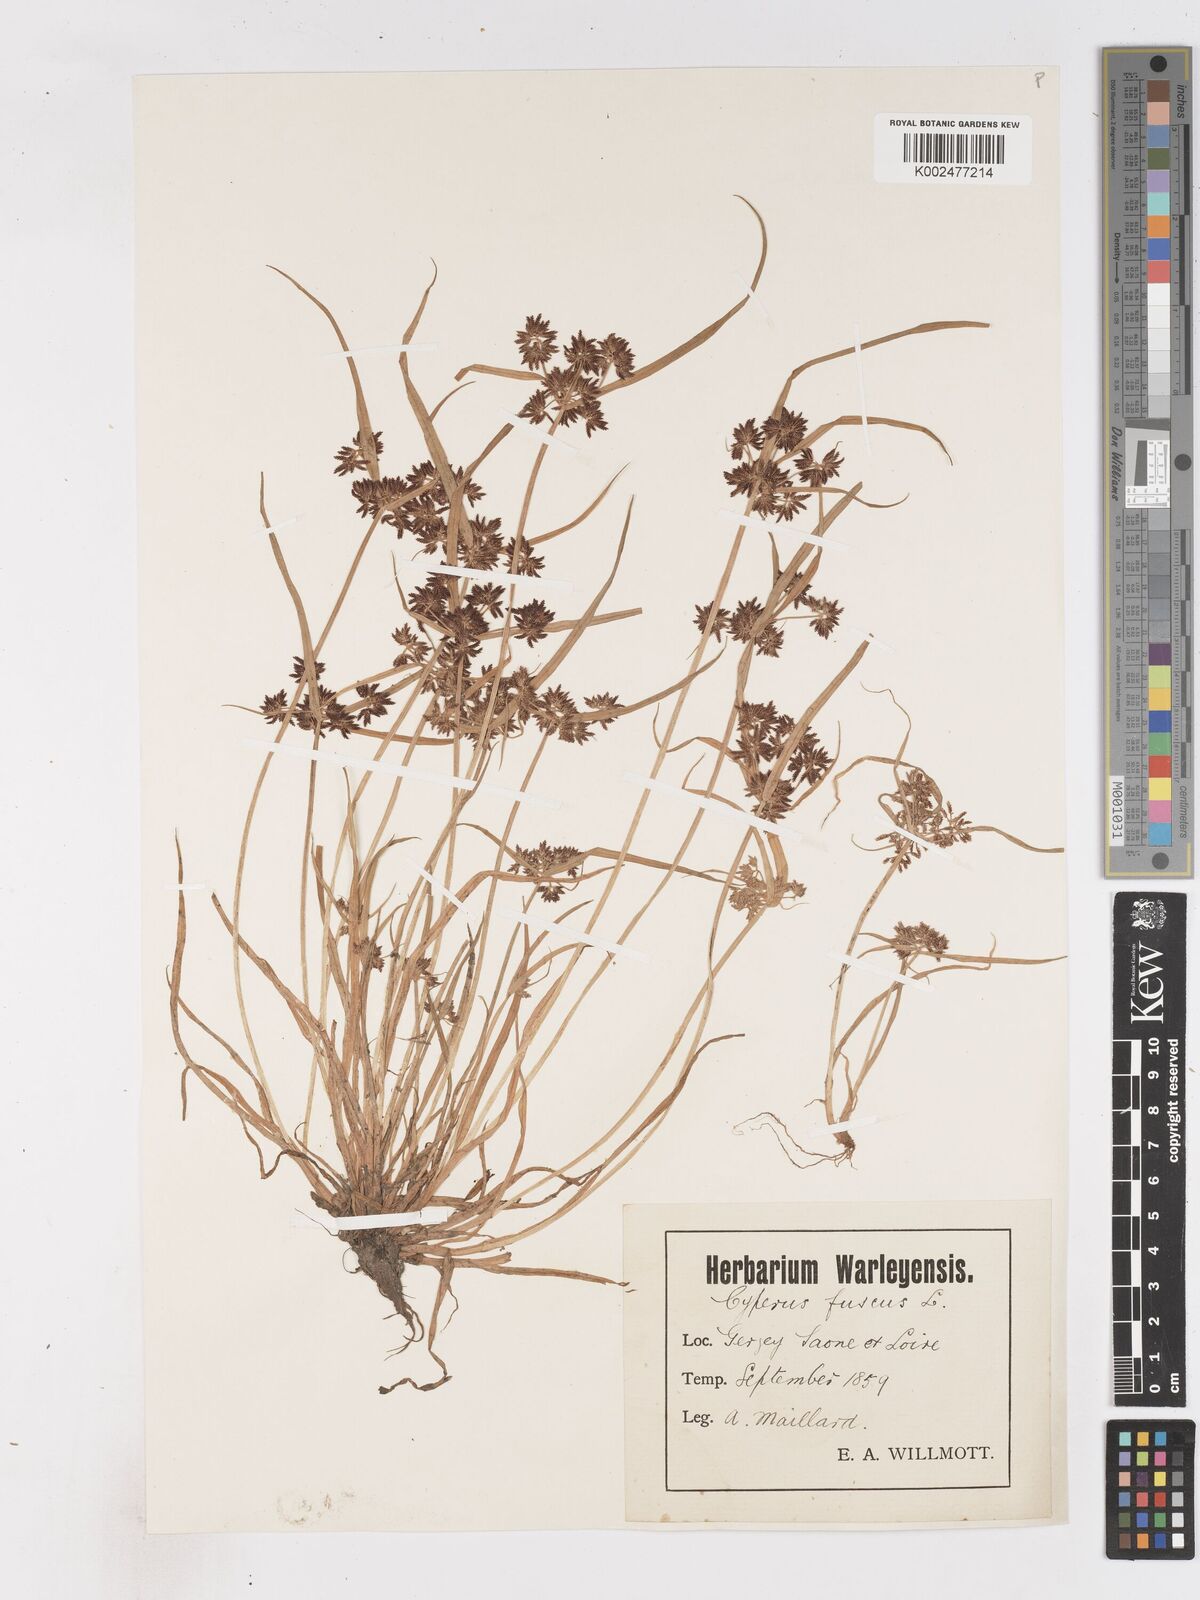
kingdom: Plantae
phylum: Tracheophyta
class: Liliopsida
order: Poales
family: Cyperaceae
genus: Cyperus
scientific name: Cyperus fuscus
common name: Brown galingale
